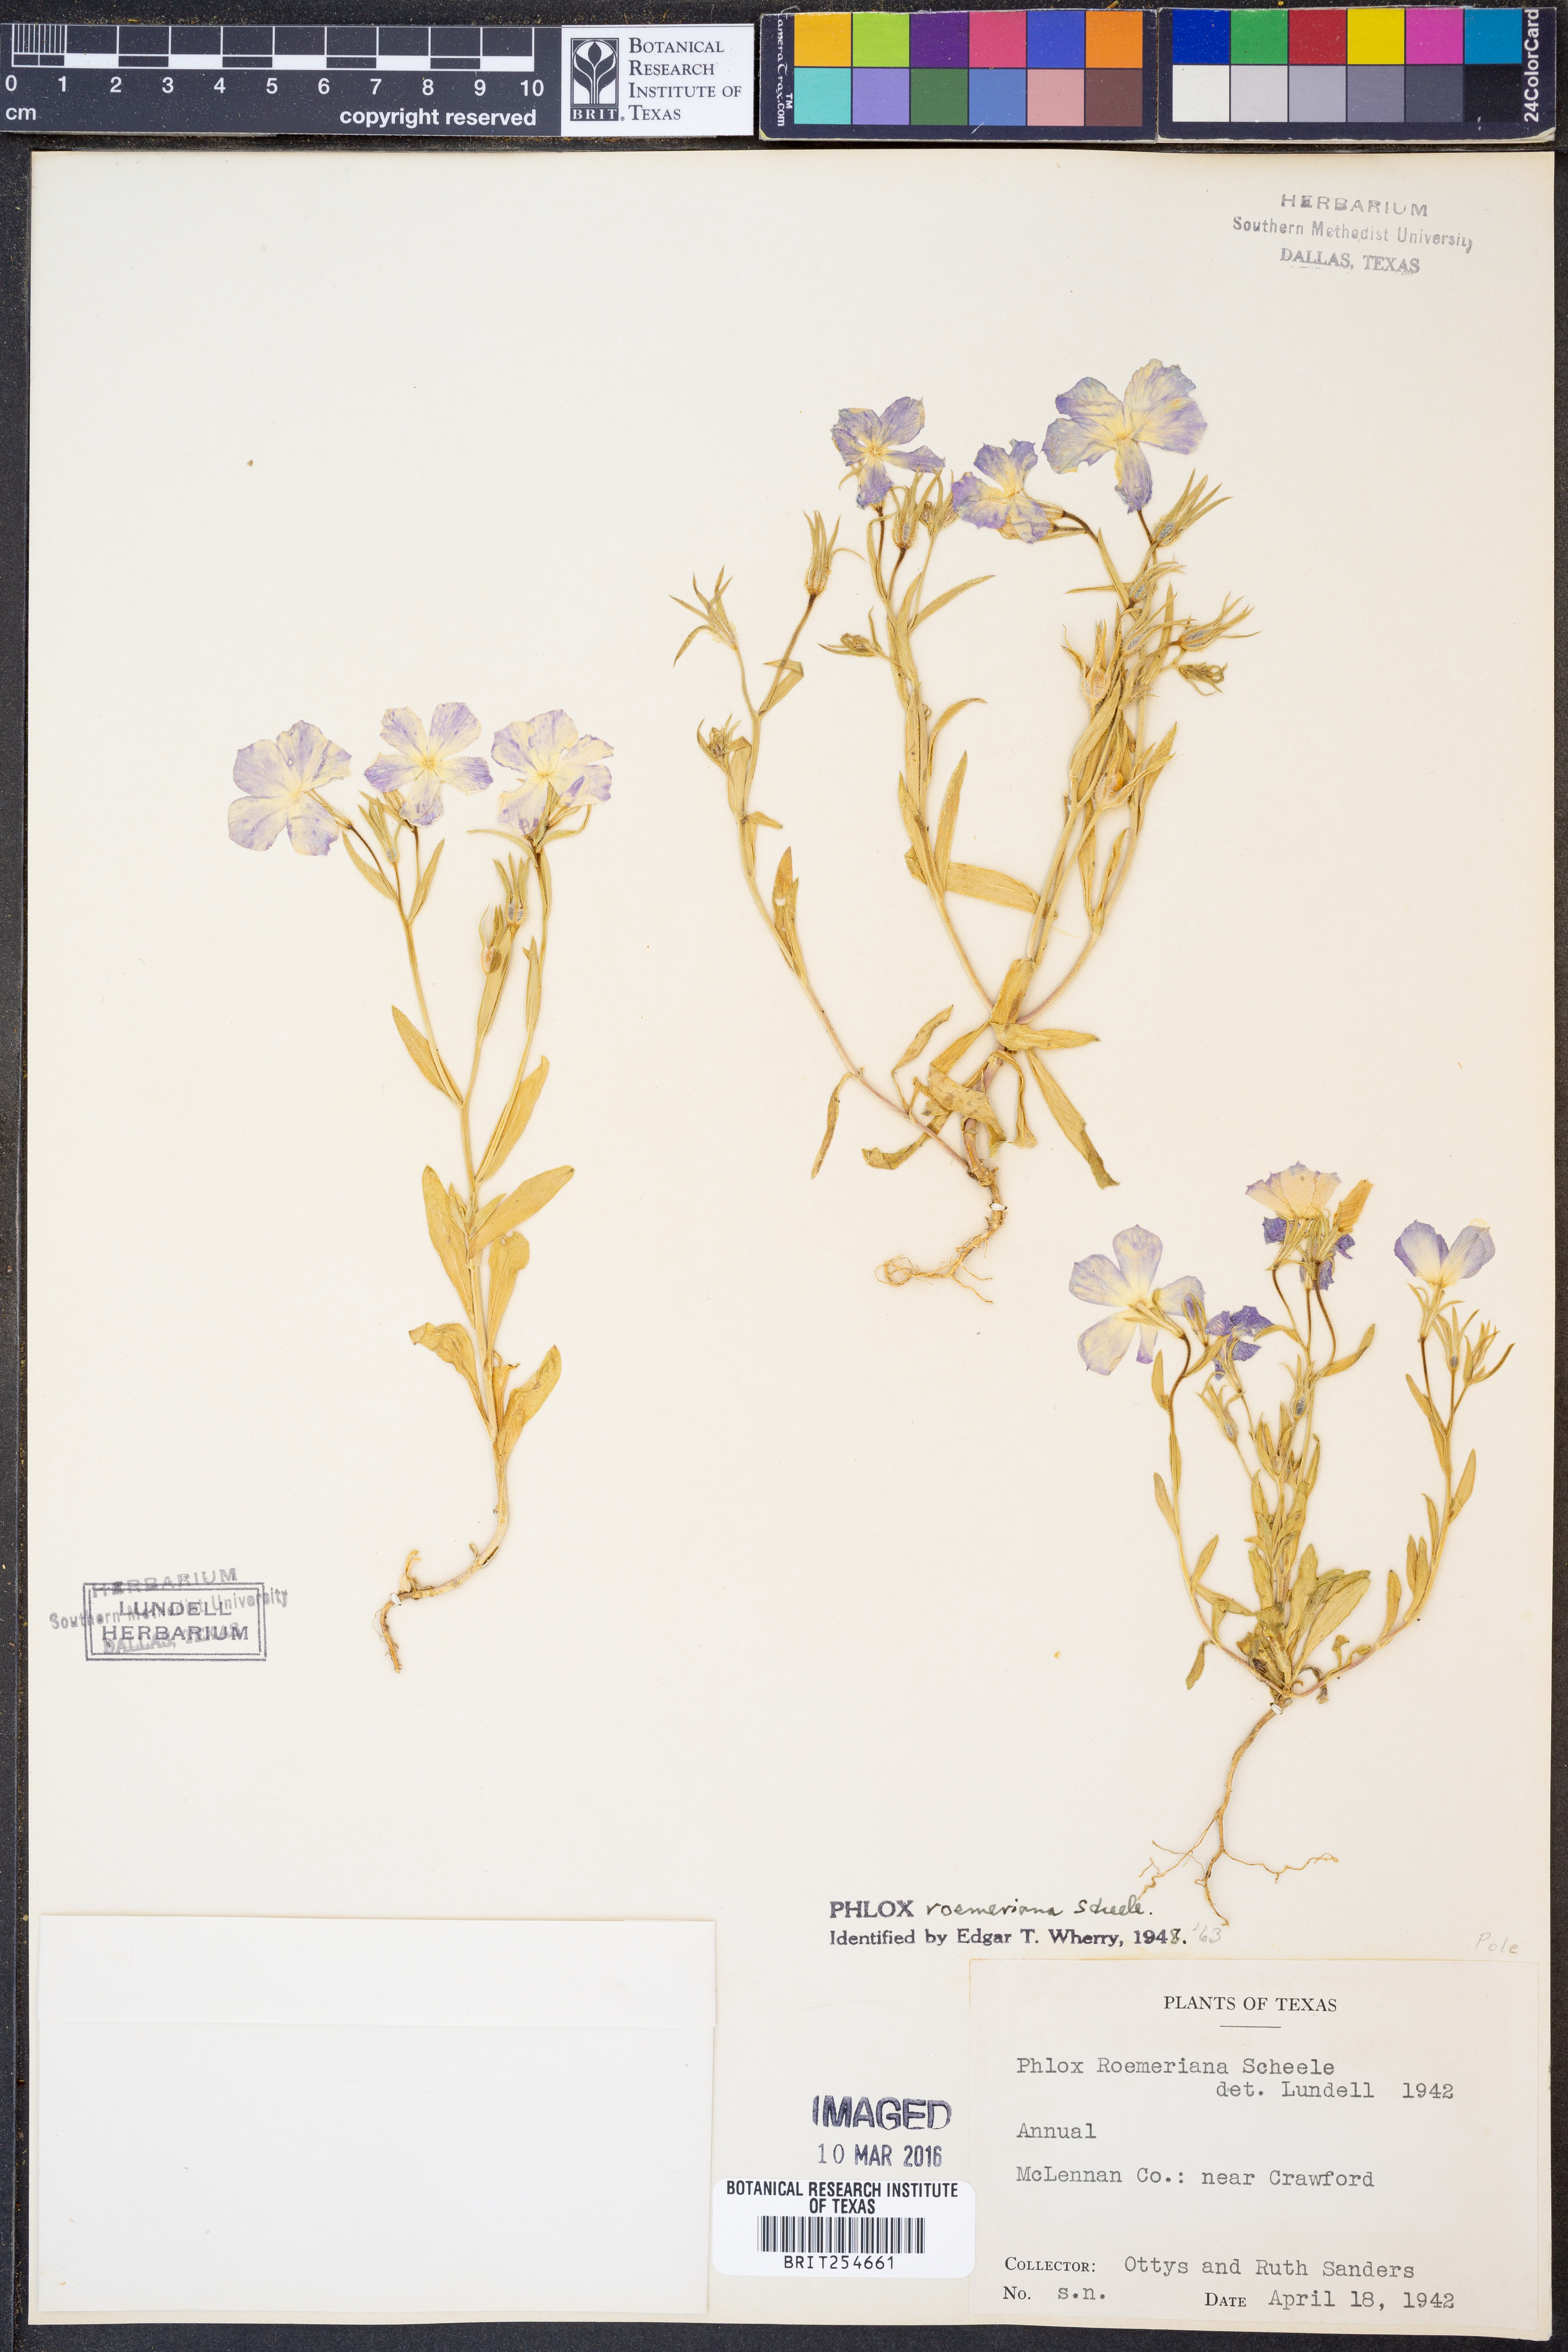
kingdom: Plantae
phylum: Tracheophyta
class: Magnoliopsida
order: Ericales
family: Polemoniaceae
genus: Phlox
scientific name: Phlox roemeriana
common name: Roemer's phlox
